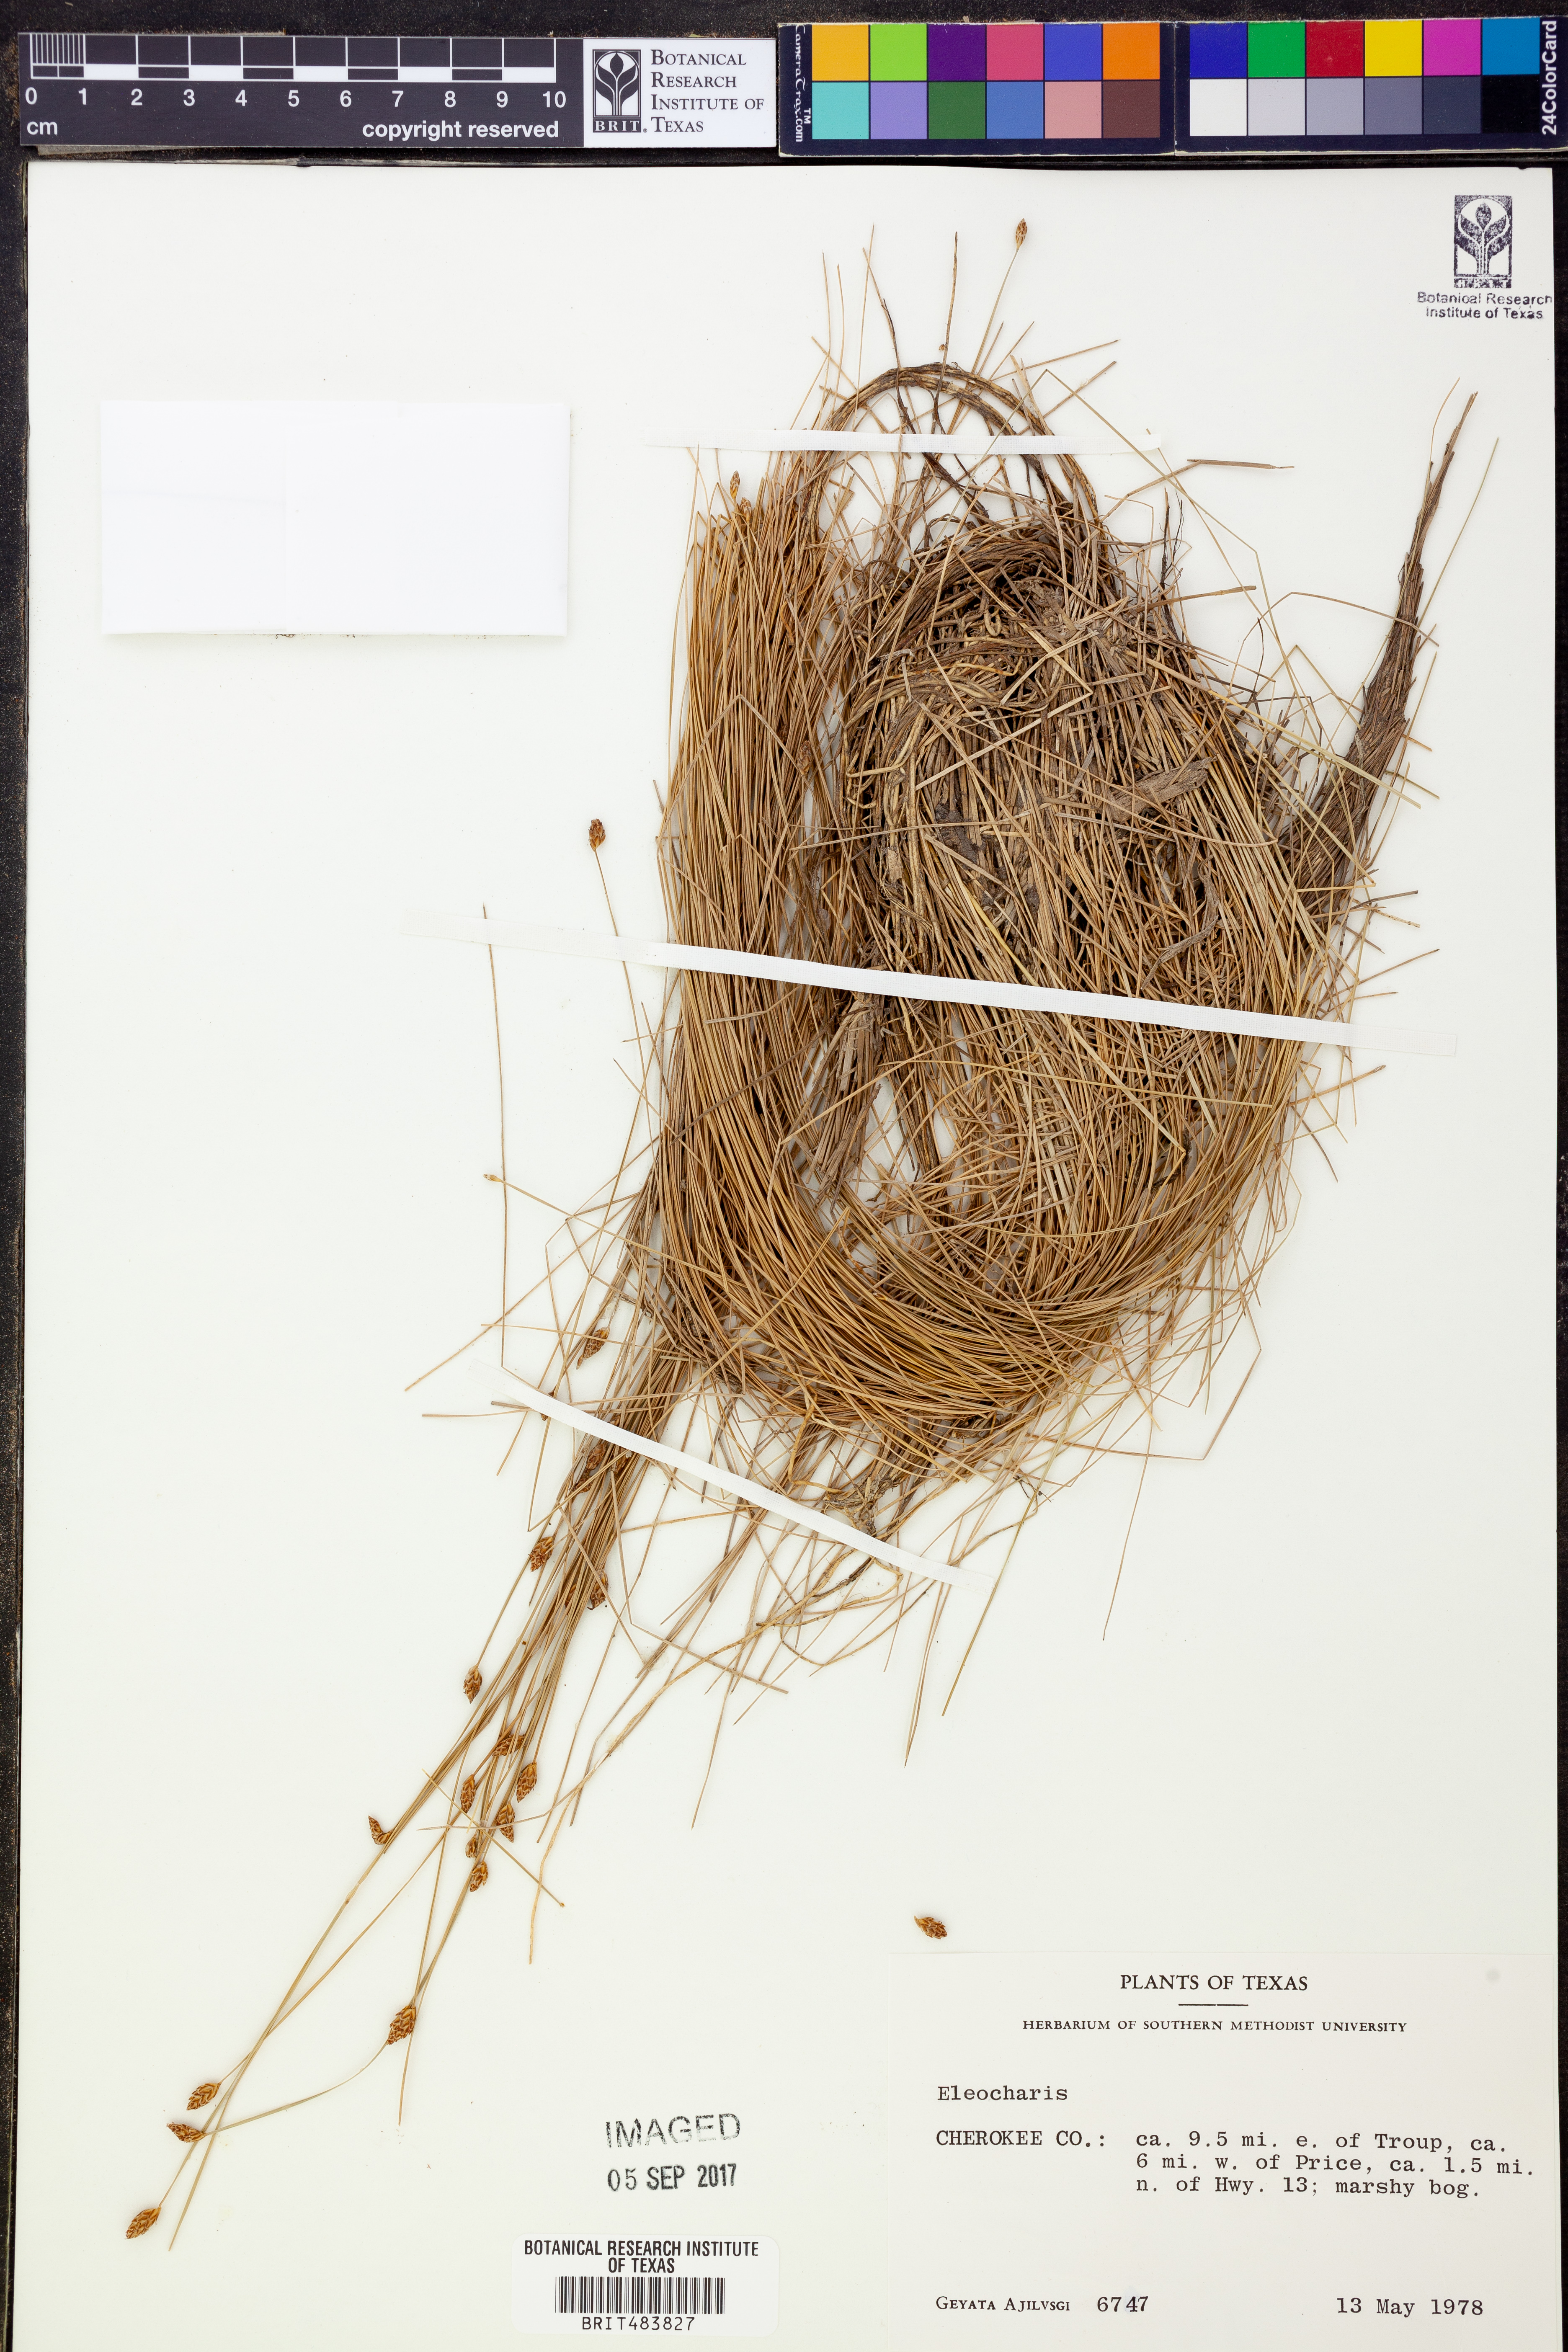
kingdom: Plantae
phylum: Tracheophyta
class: Liliopsida
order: Poales
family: Cyperaceae
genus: Eleocharis
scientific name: Eleocharis
